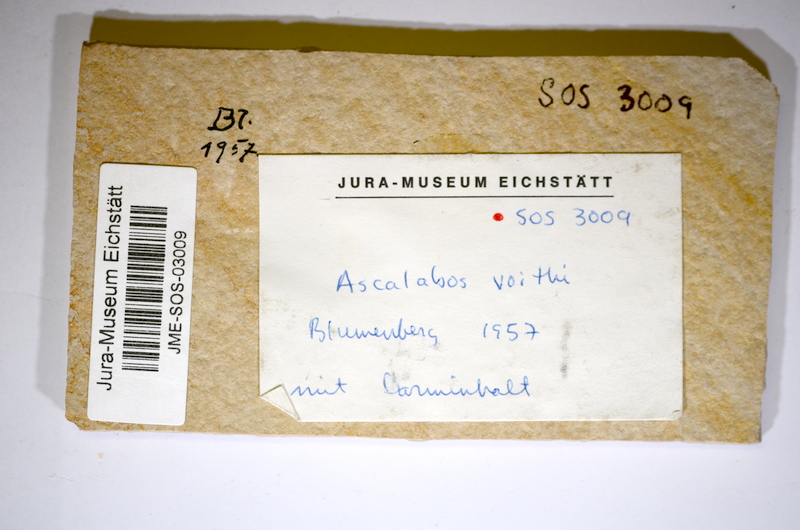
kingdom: Animalia
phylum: Chordata
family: Ascalaboidae
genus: Ascalabos
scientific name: Ascalabos voithii
